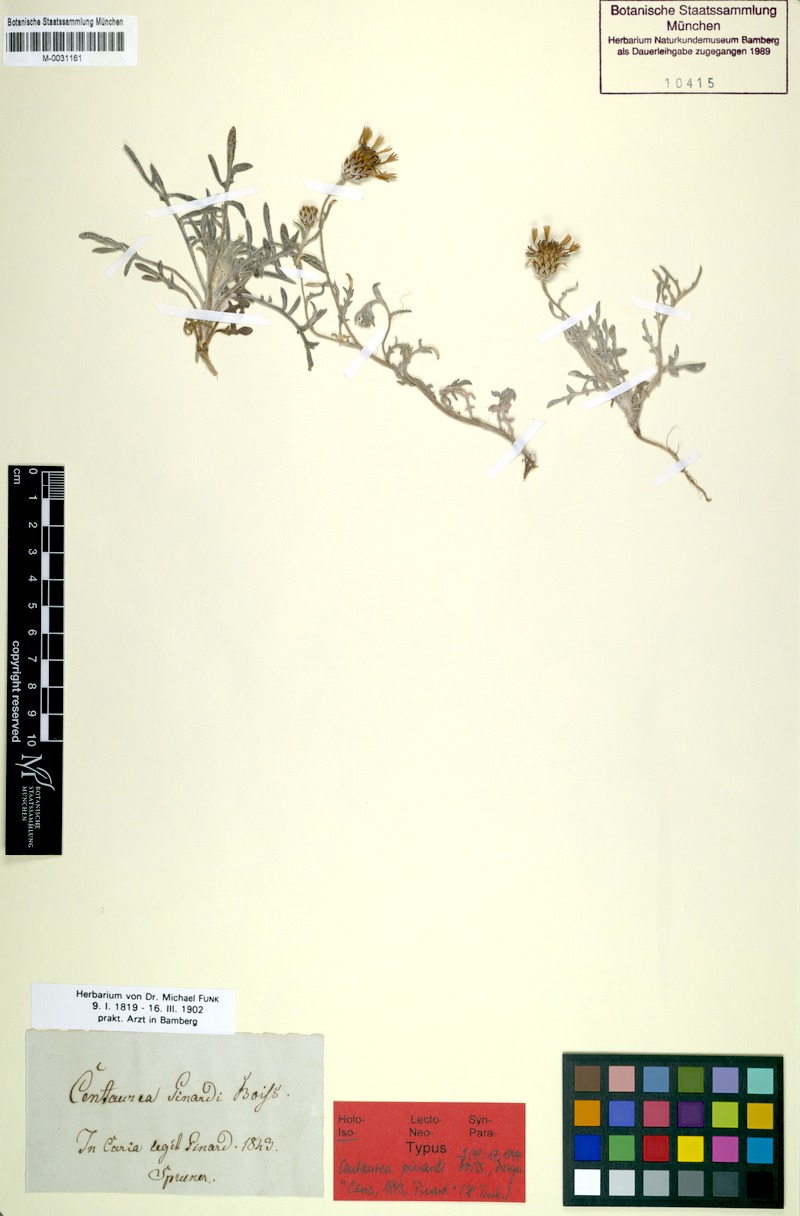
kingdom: Plantae
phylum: Tracheophyta
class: Magnoliopsida
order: Asterales
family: Asteraceae
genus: Centaurea
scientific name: Centaurea pinardii
